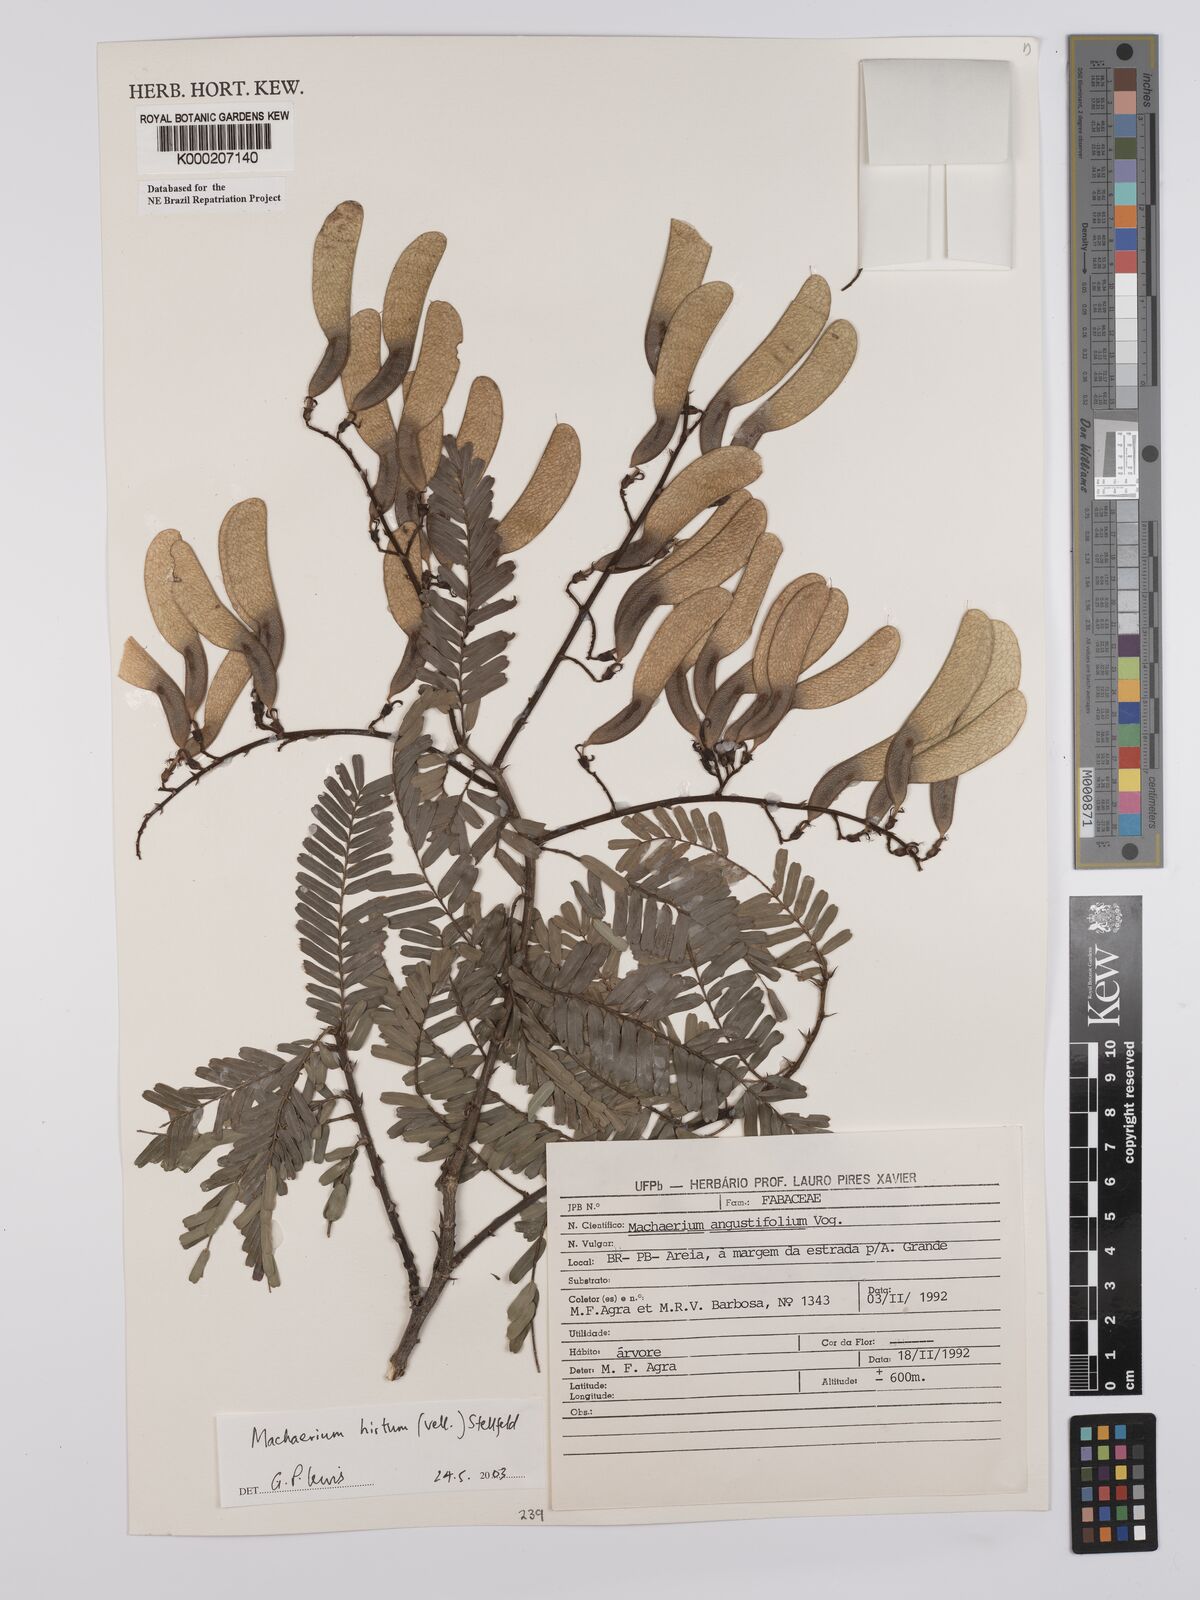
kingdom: Plantae
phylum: Tracheophyta
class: Magnoliopsida
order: Fabales
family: Fabaceae
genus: Machaerium
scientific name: Machaerium hirtum
